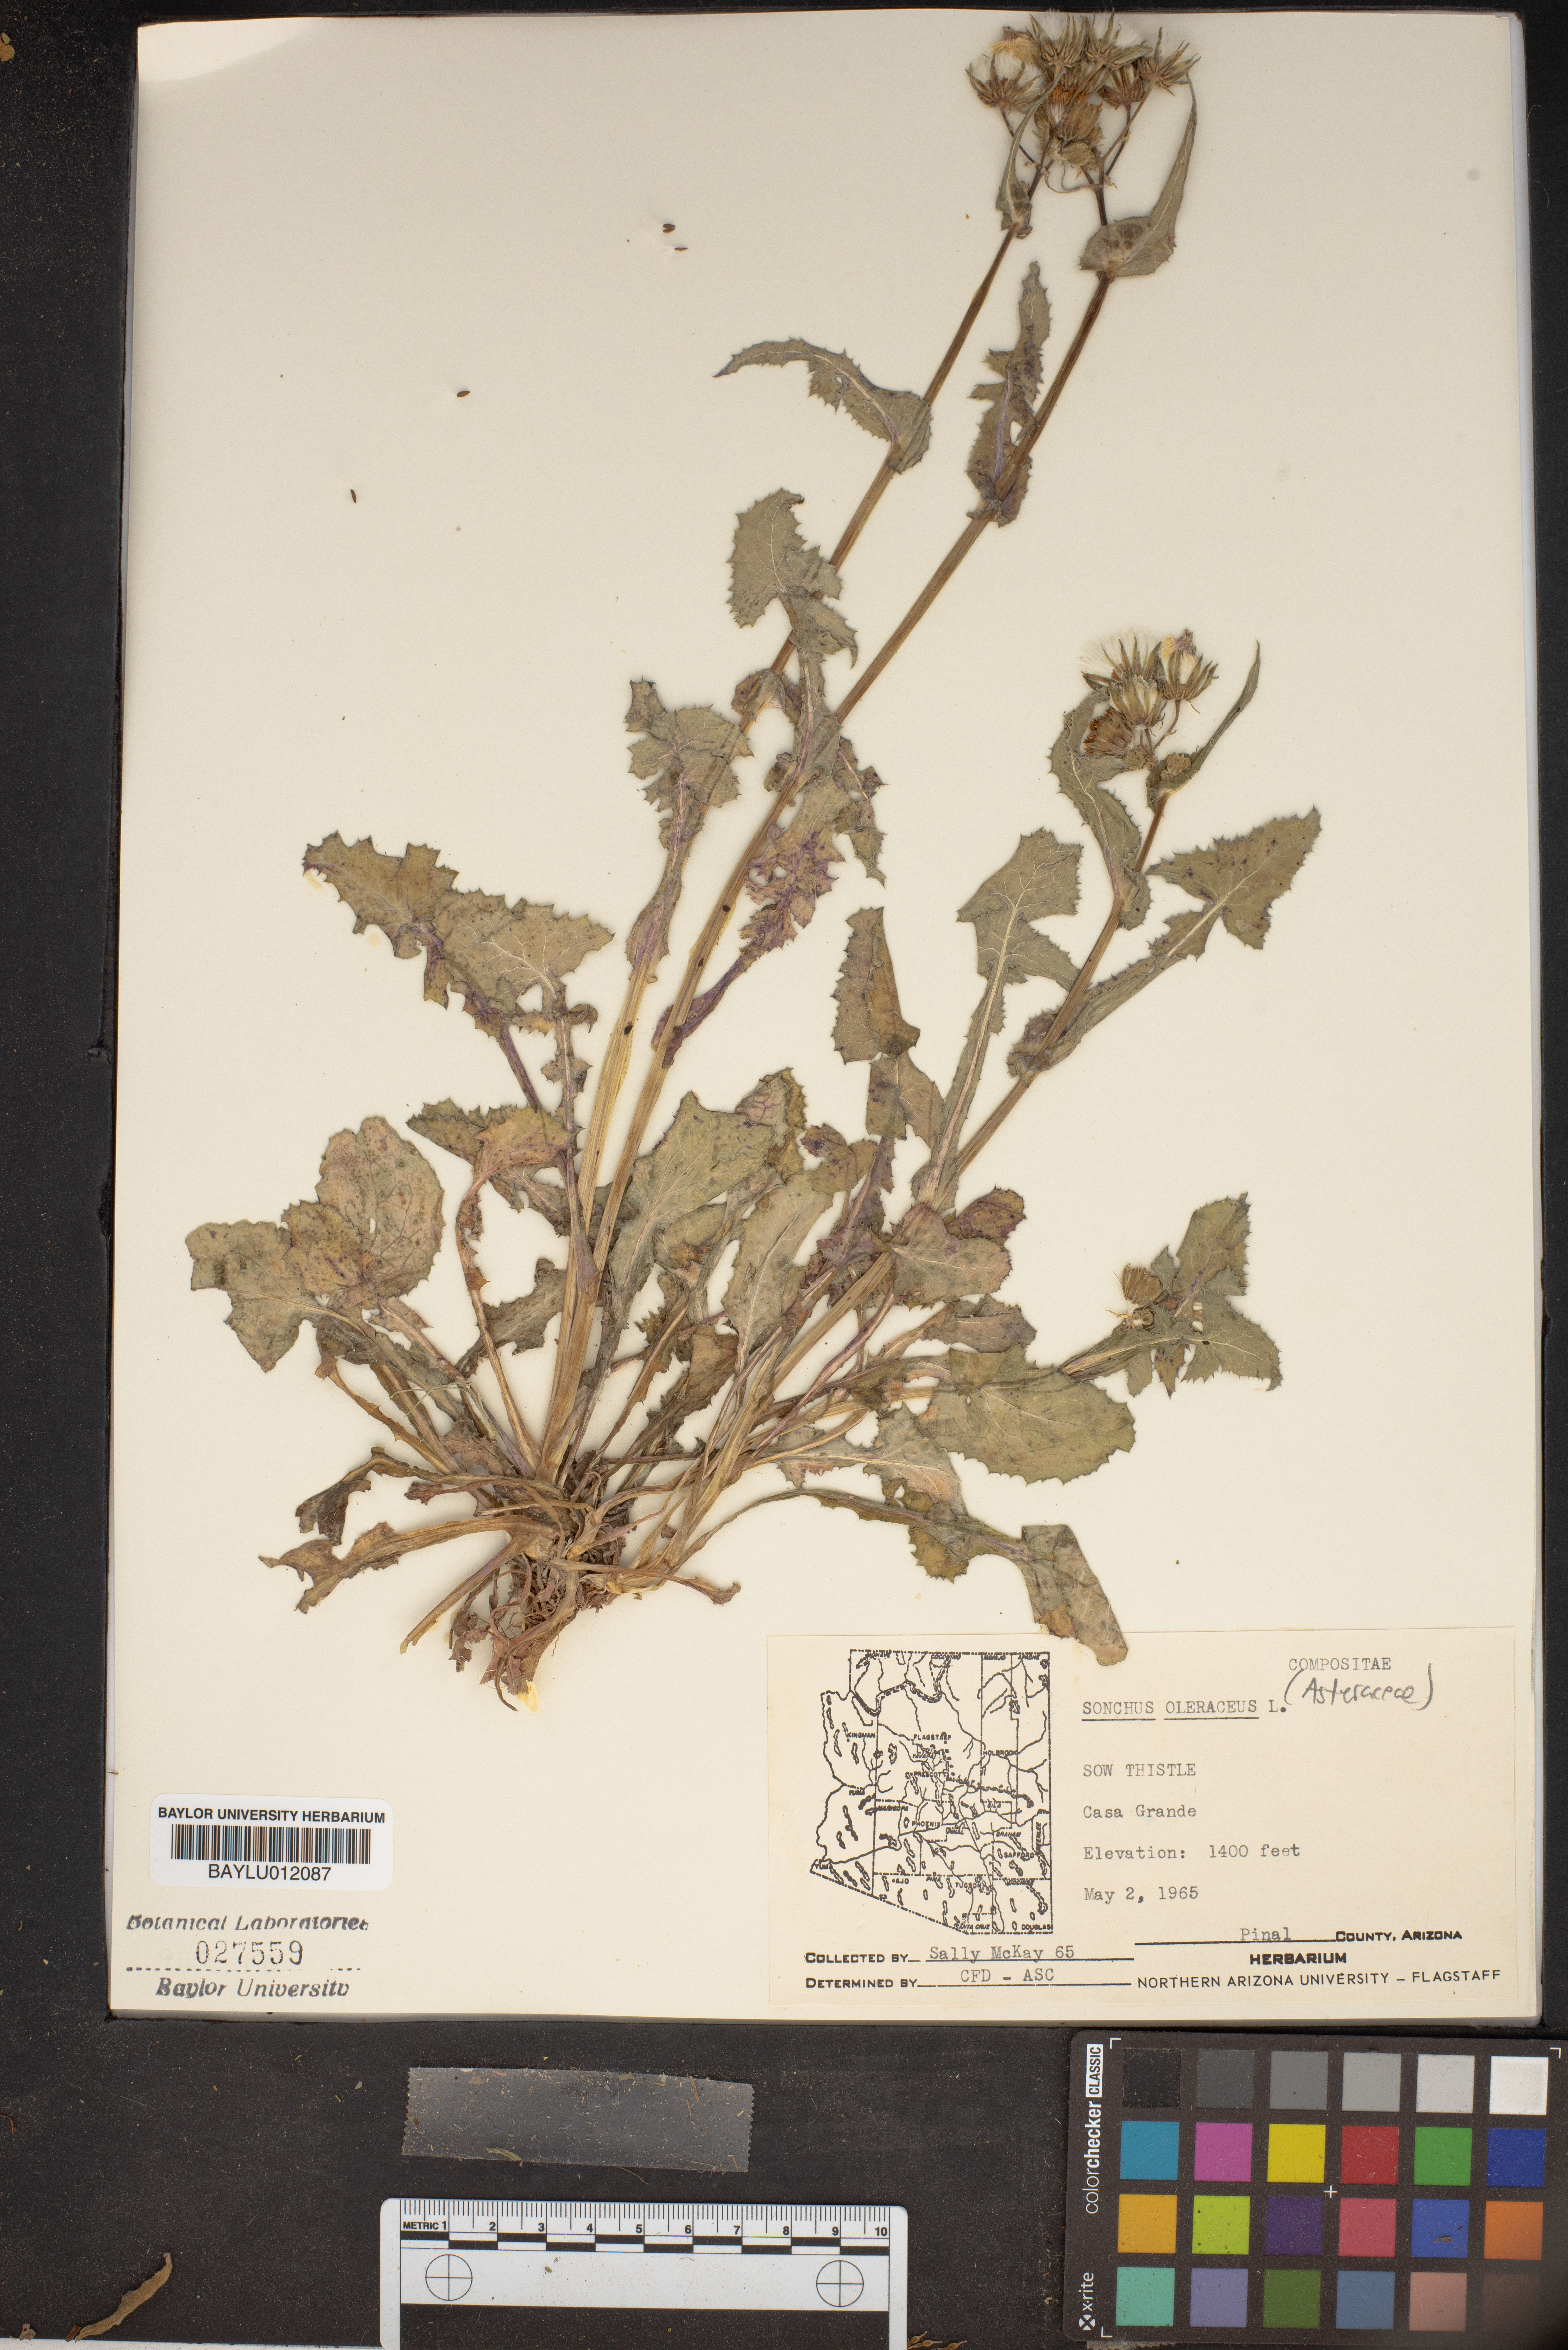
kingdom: Plantae
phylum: Tracheophyta
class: Magnoliopsida
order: Asterales
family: Asteraceae
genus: Sonchus
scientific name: Sonchus oleraceus
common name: Common sowthistle
